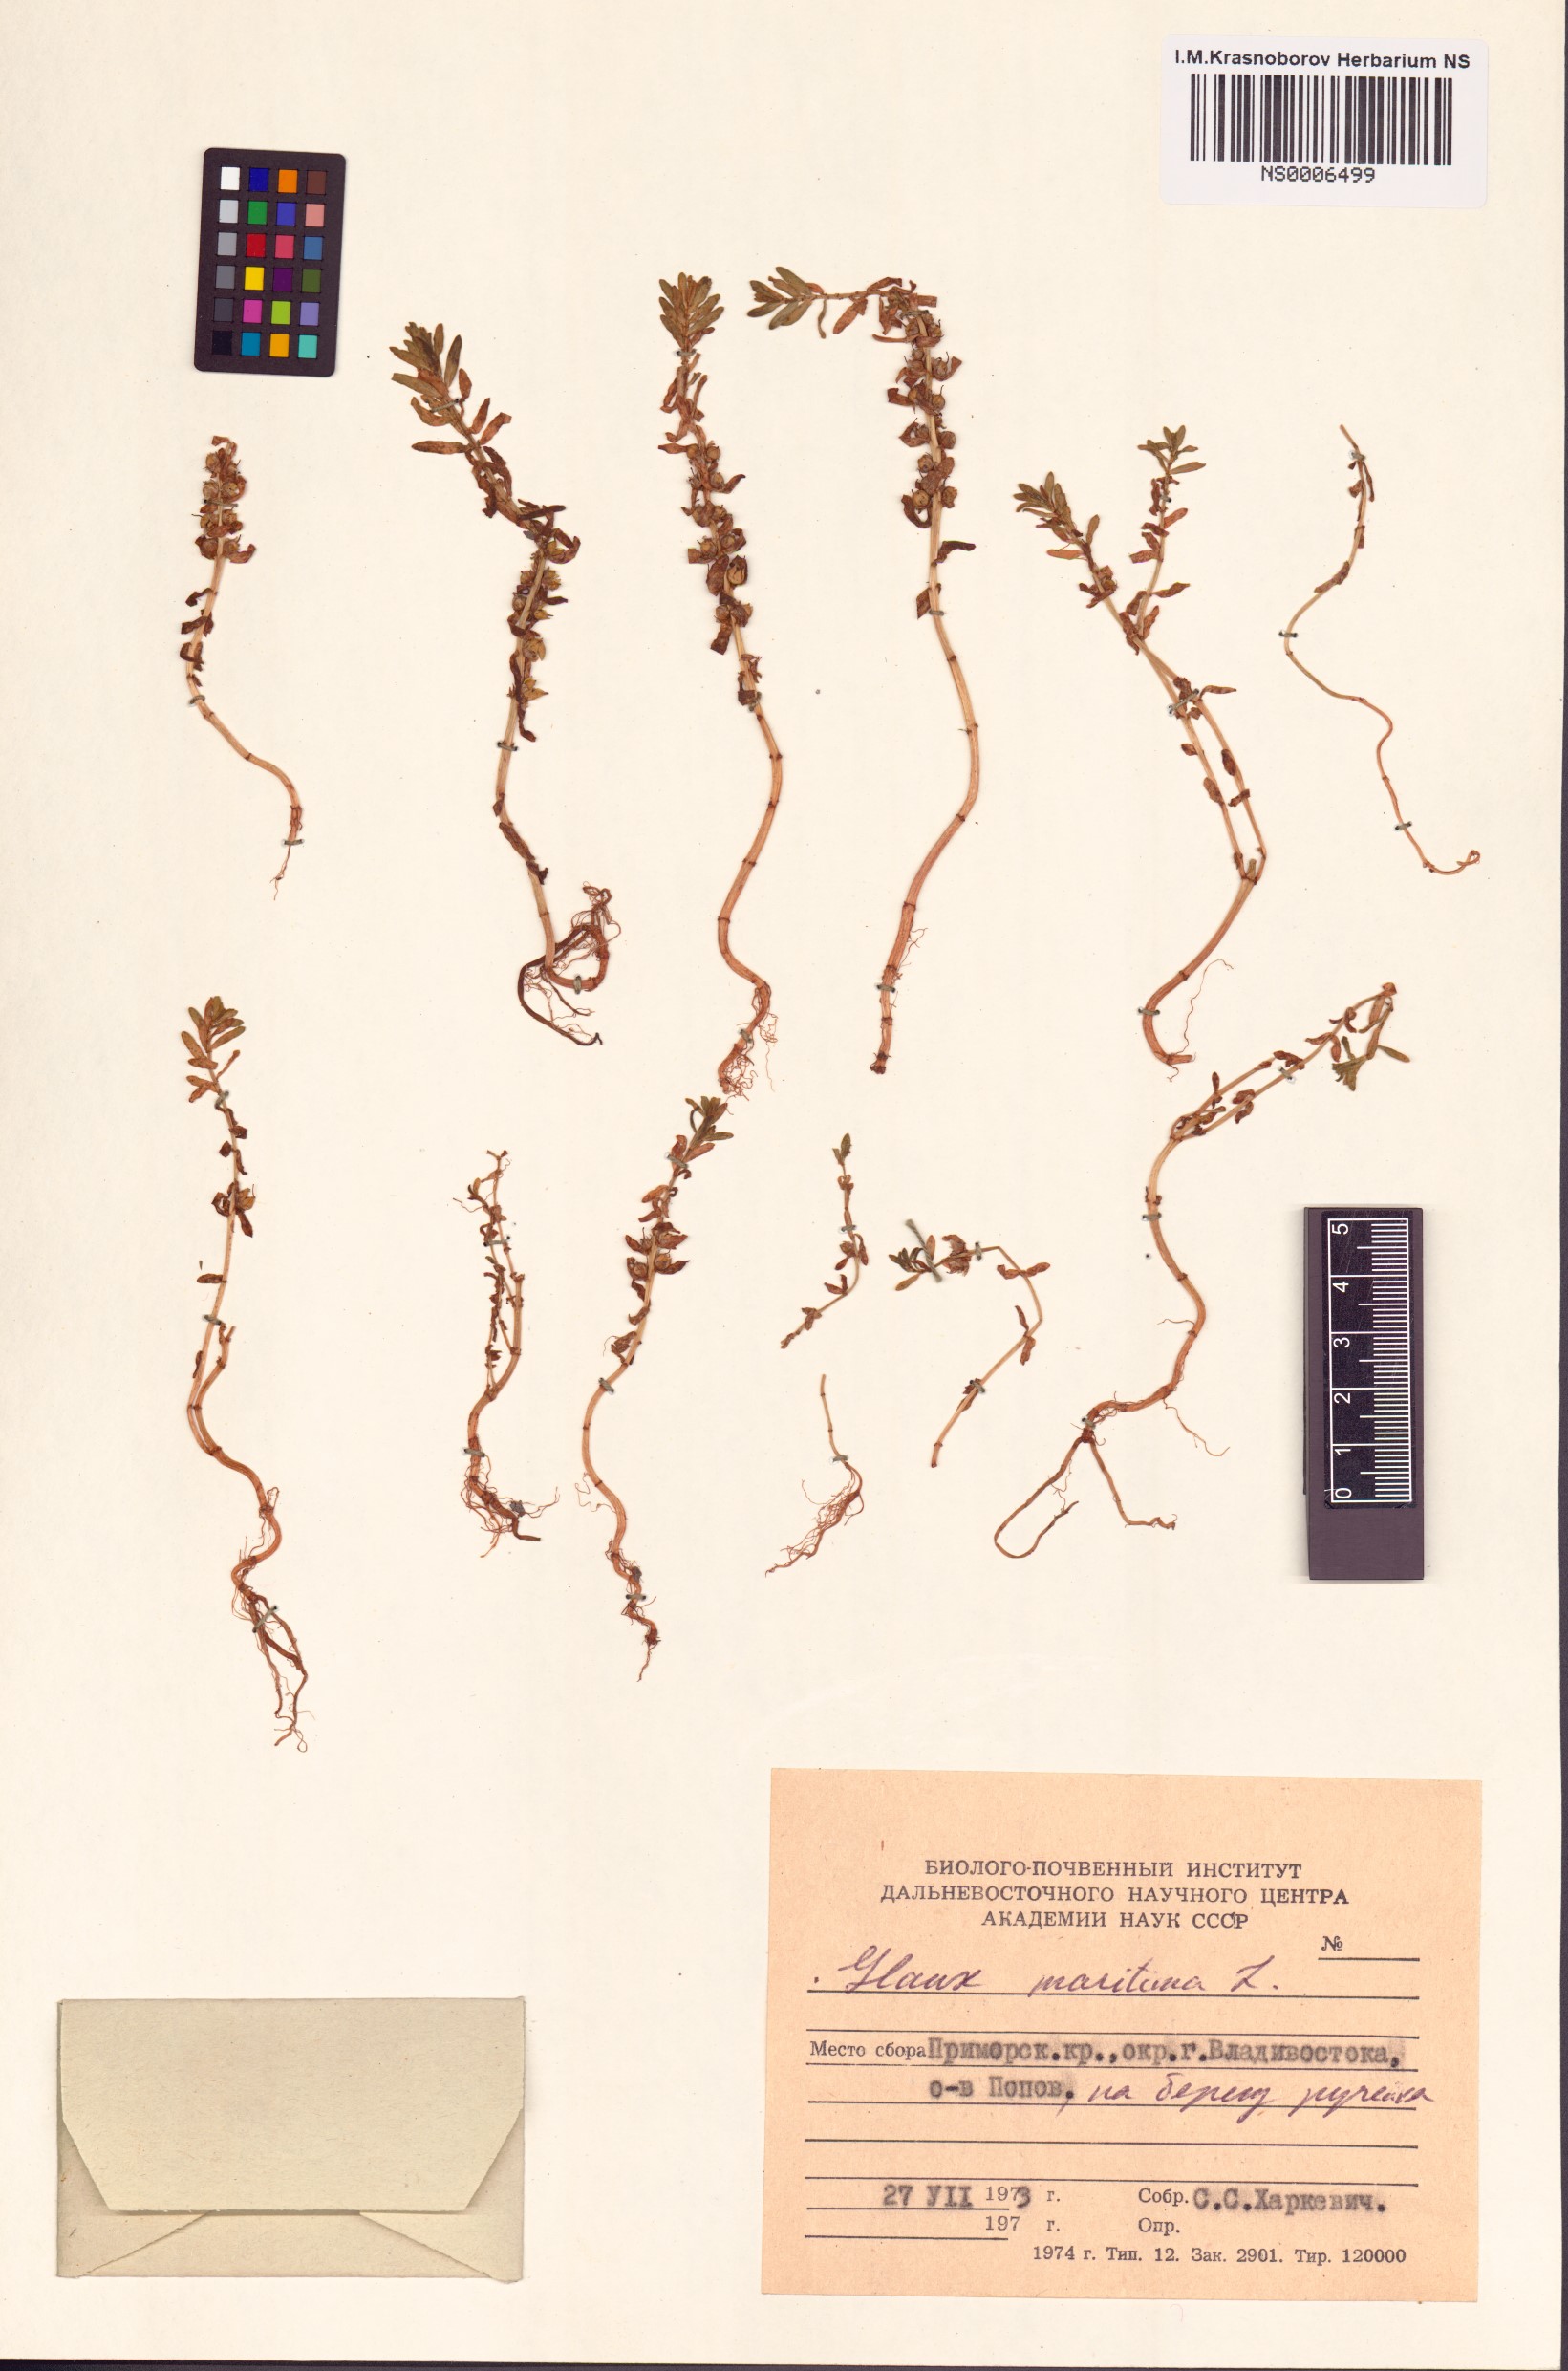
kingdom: Plantae
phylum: Tracheophyta
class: Magnoliopsida
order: Ericales
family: Primulaceae
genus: Lysimachia
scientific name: Lysimachia maritima
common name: Sea milkwort
